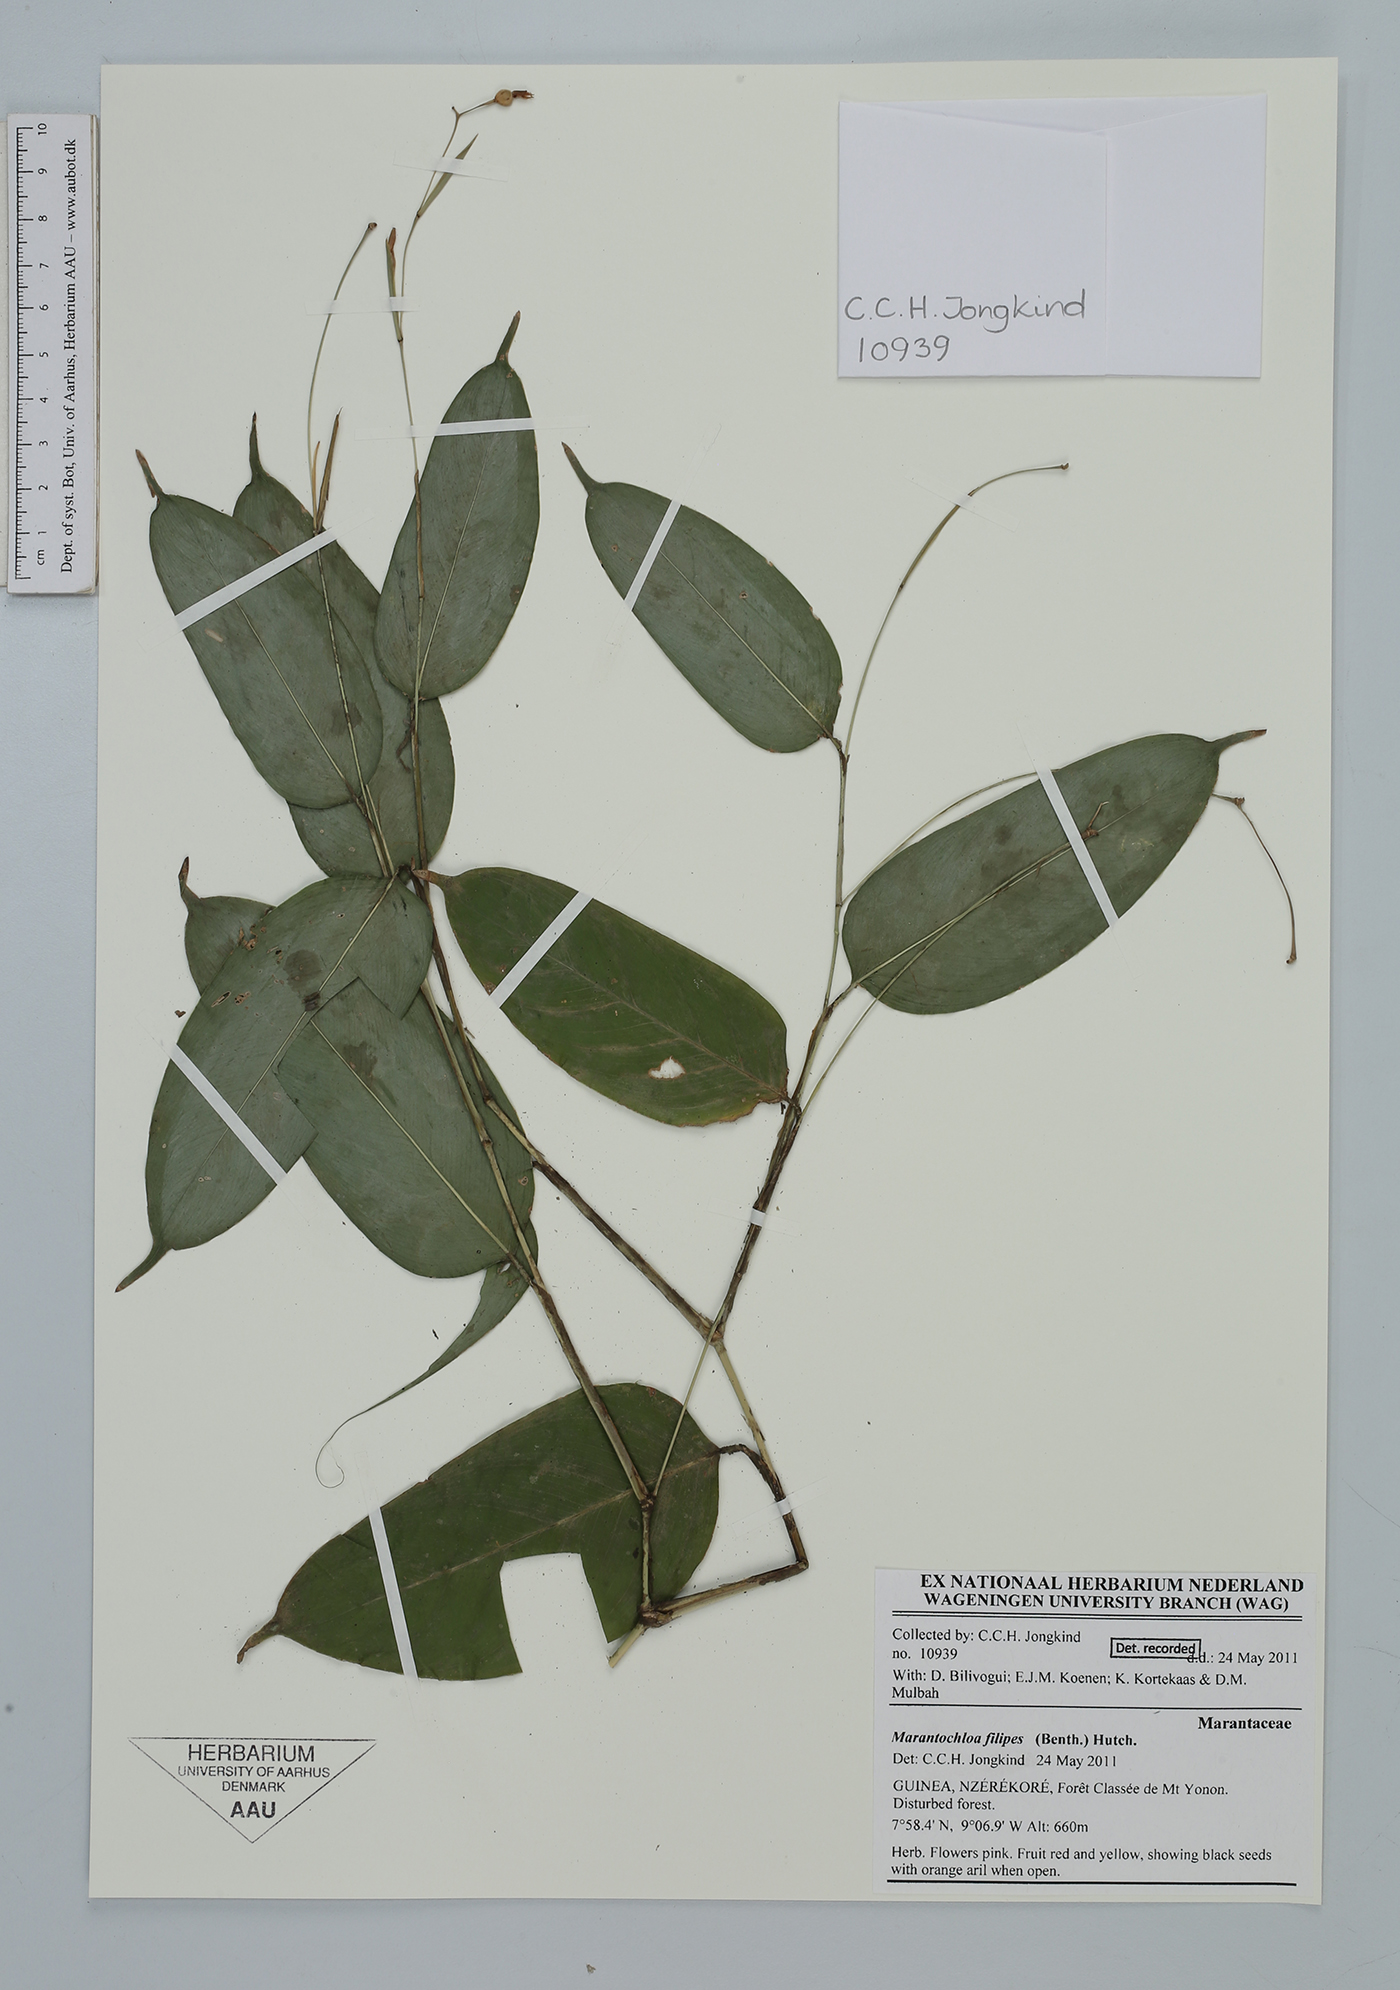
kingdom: Plantae
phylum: Tracheophyta
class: Liliopsida
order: Zingiberales
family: Marantaceae
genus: Marantochloa
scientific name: Marantochloa filipes
